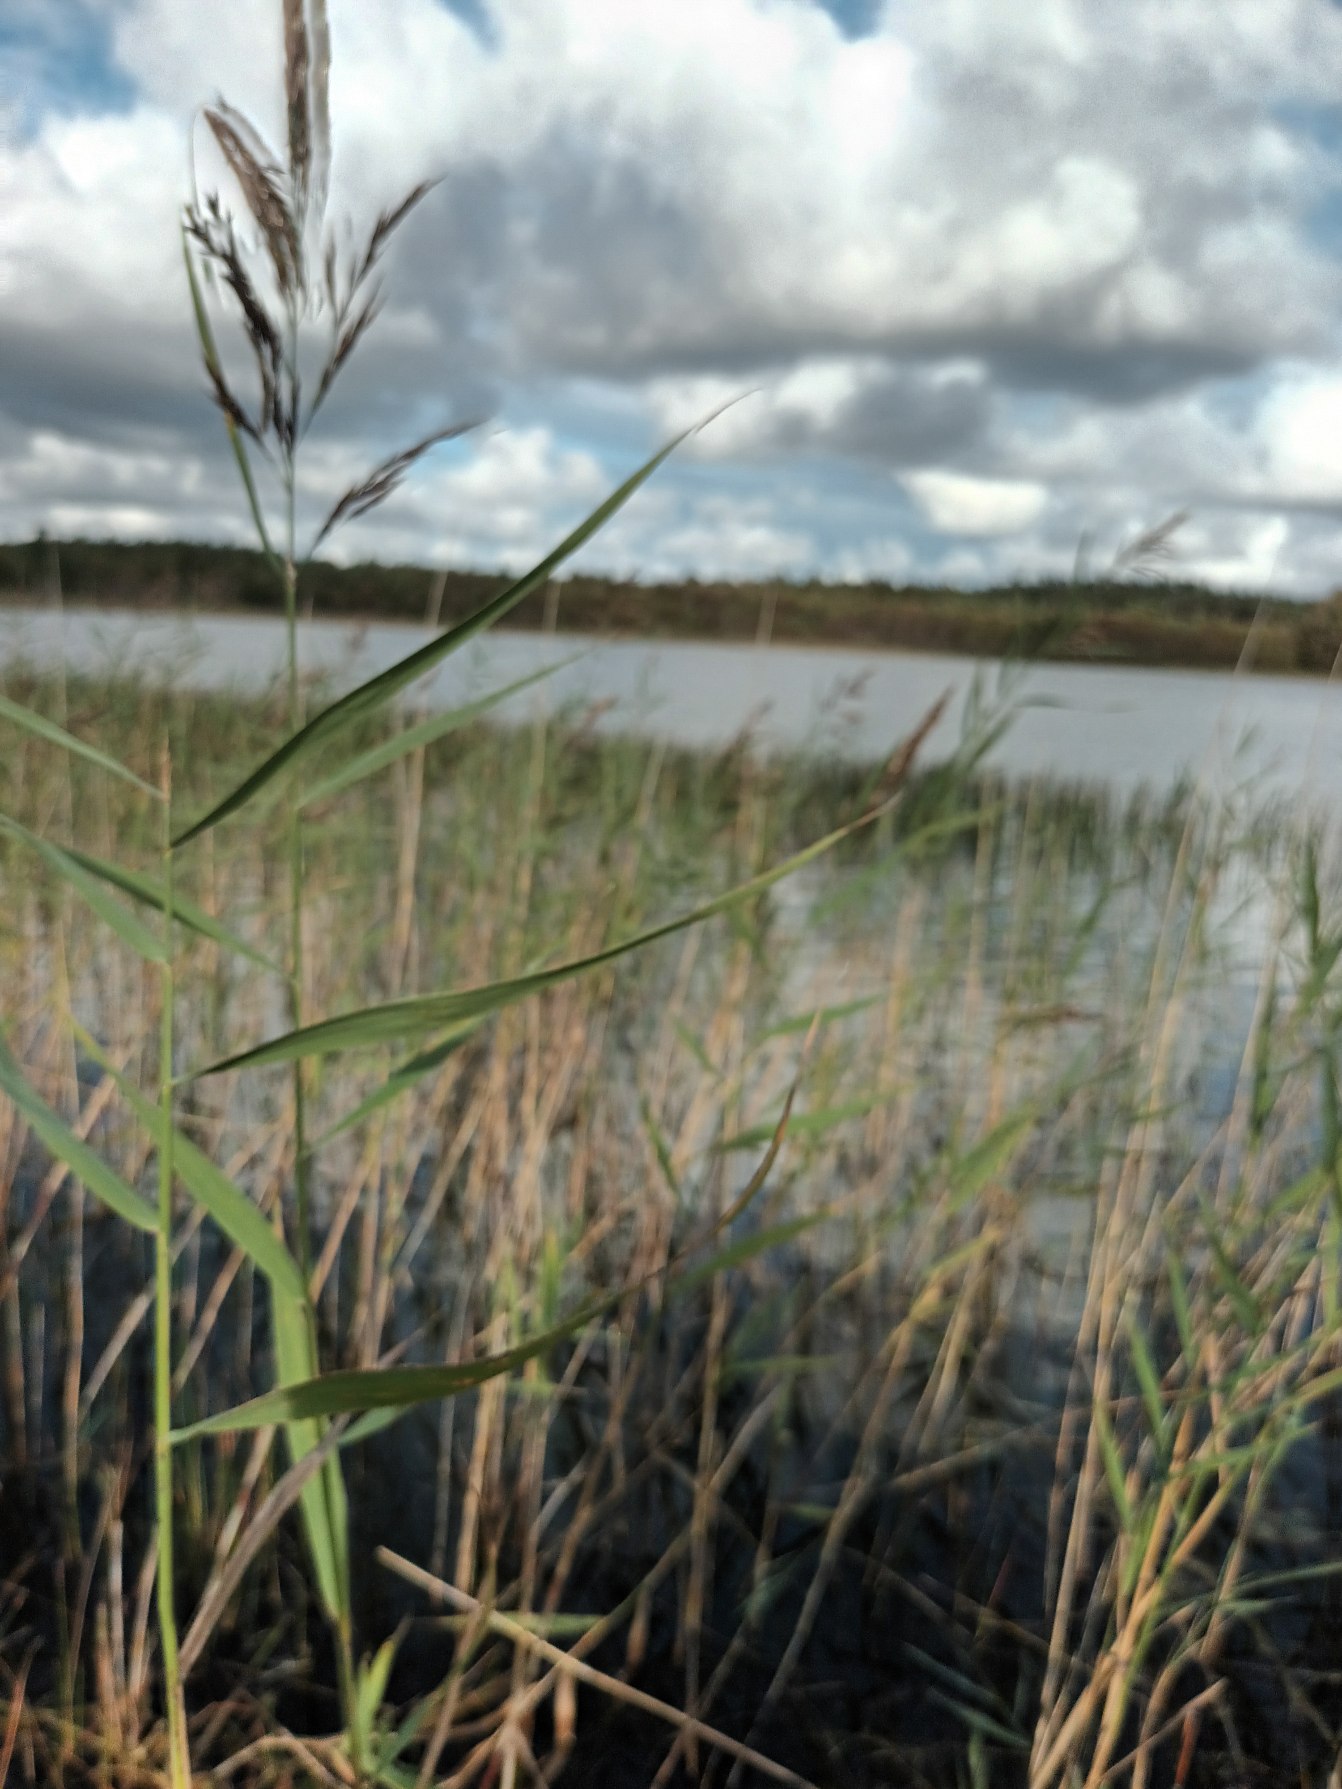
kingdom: Plantae
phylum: Tracheophyta
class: Liliopsida
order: Poales
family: Poaceae
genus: Phragmites
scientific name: Phragmites australis
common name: Tagrør
